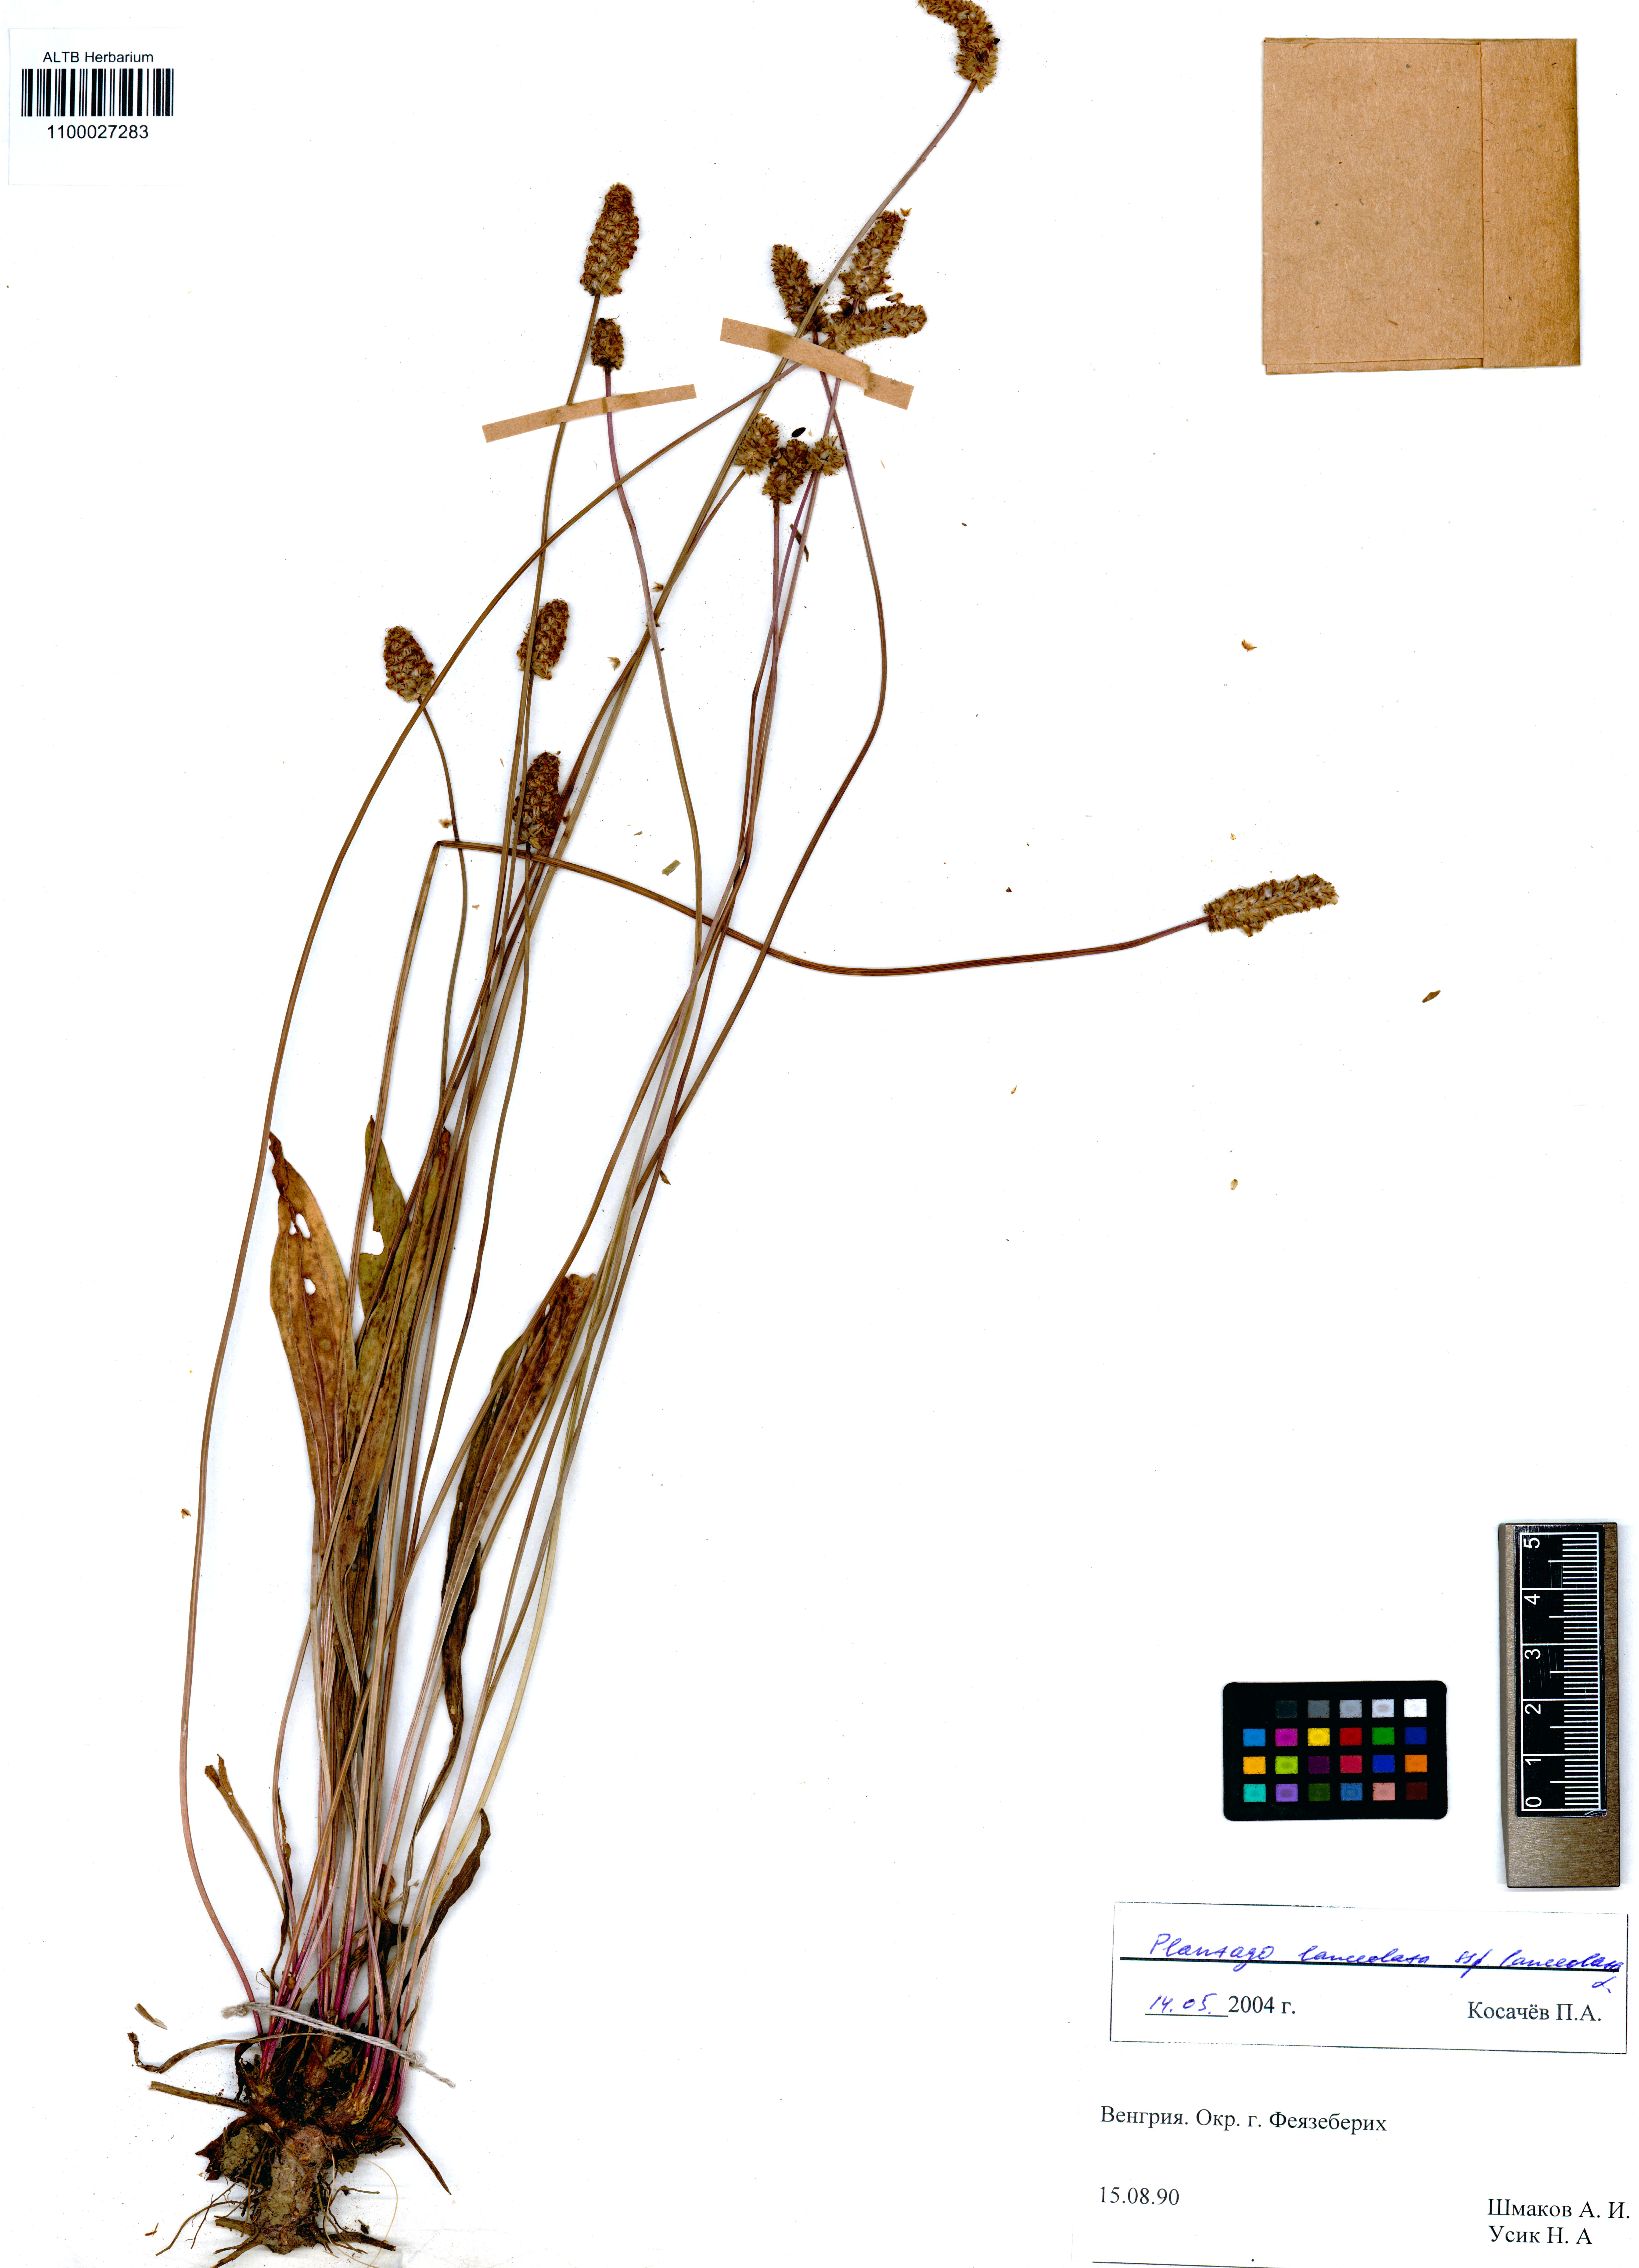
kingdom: Plantae
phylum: Tracheophyta
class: Magnoliopsida
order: Lamiales
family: Plantaginaceae
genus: Plantago
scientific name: Plantago lanceolata
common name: Ribwort plantain
